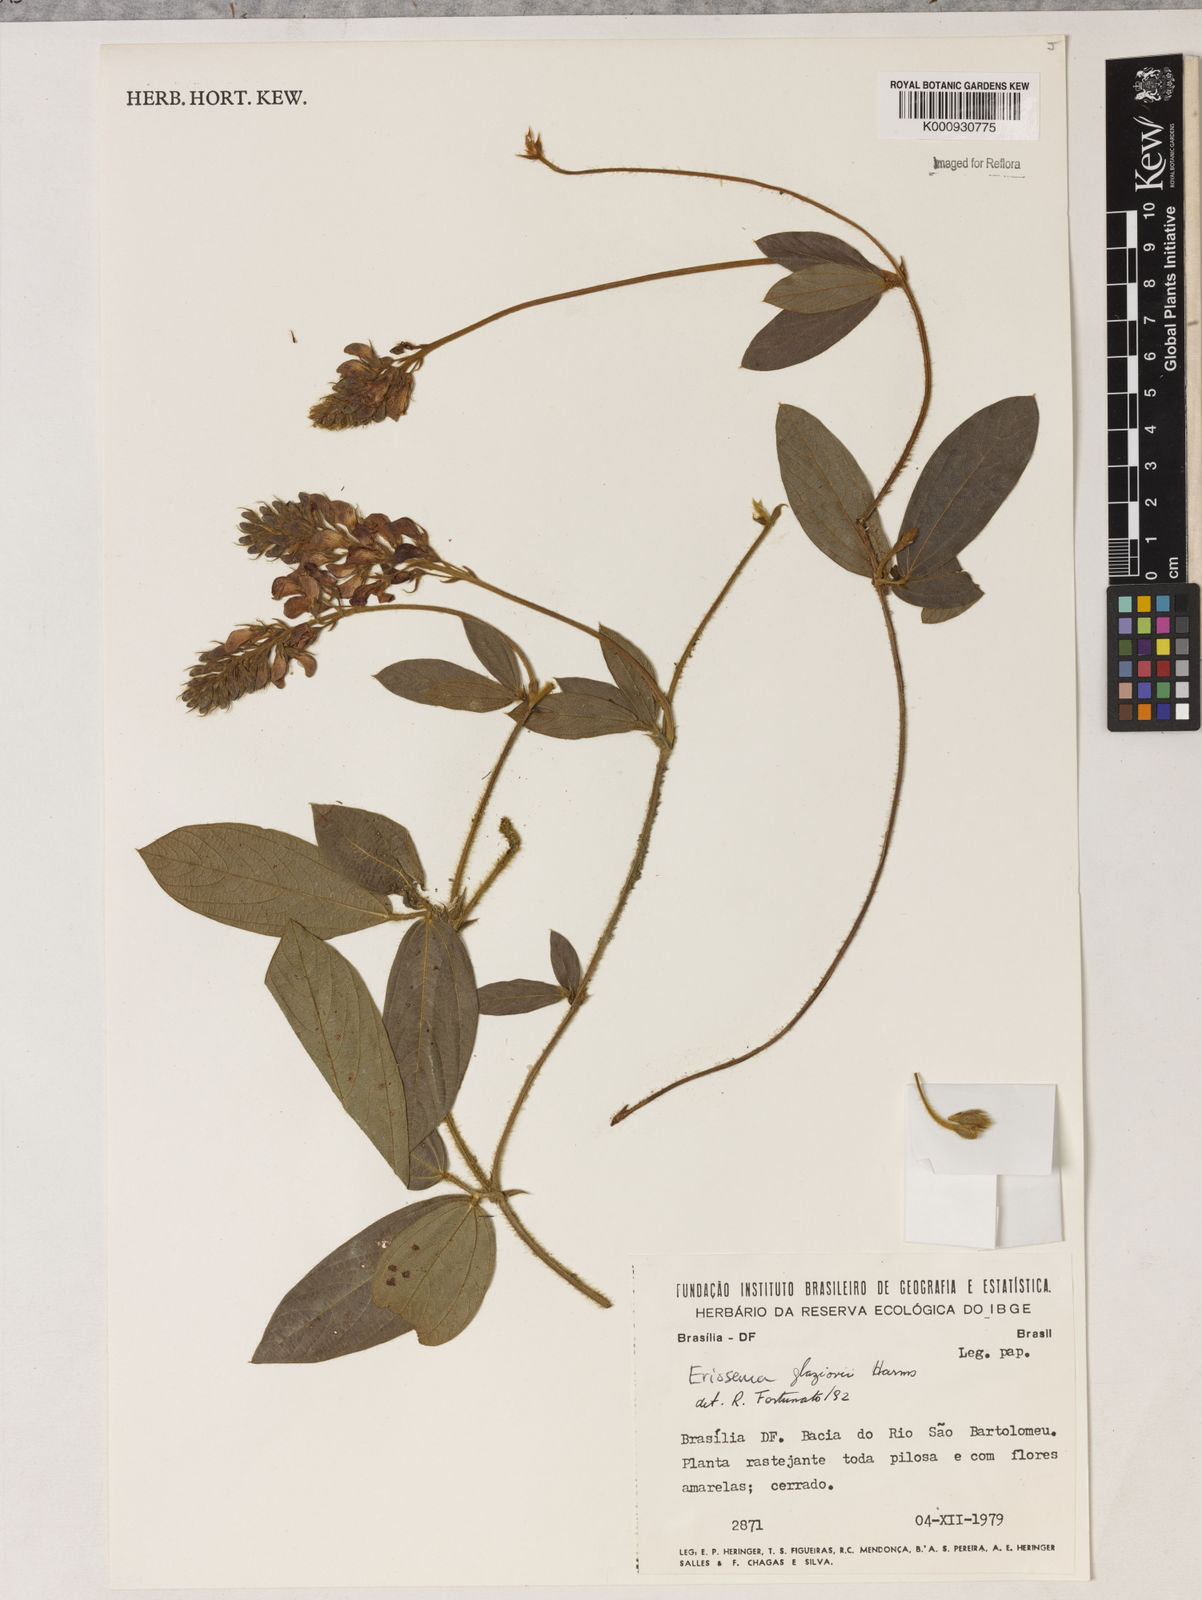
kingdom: Plantae
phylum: Tracheophyta
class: Magnoliopsida
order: Fabales
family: Fabaceae
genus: Eriosema
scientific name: Eriosema glaziovii
